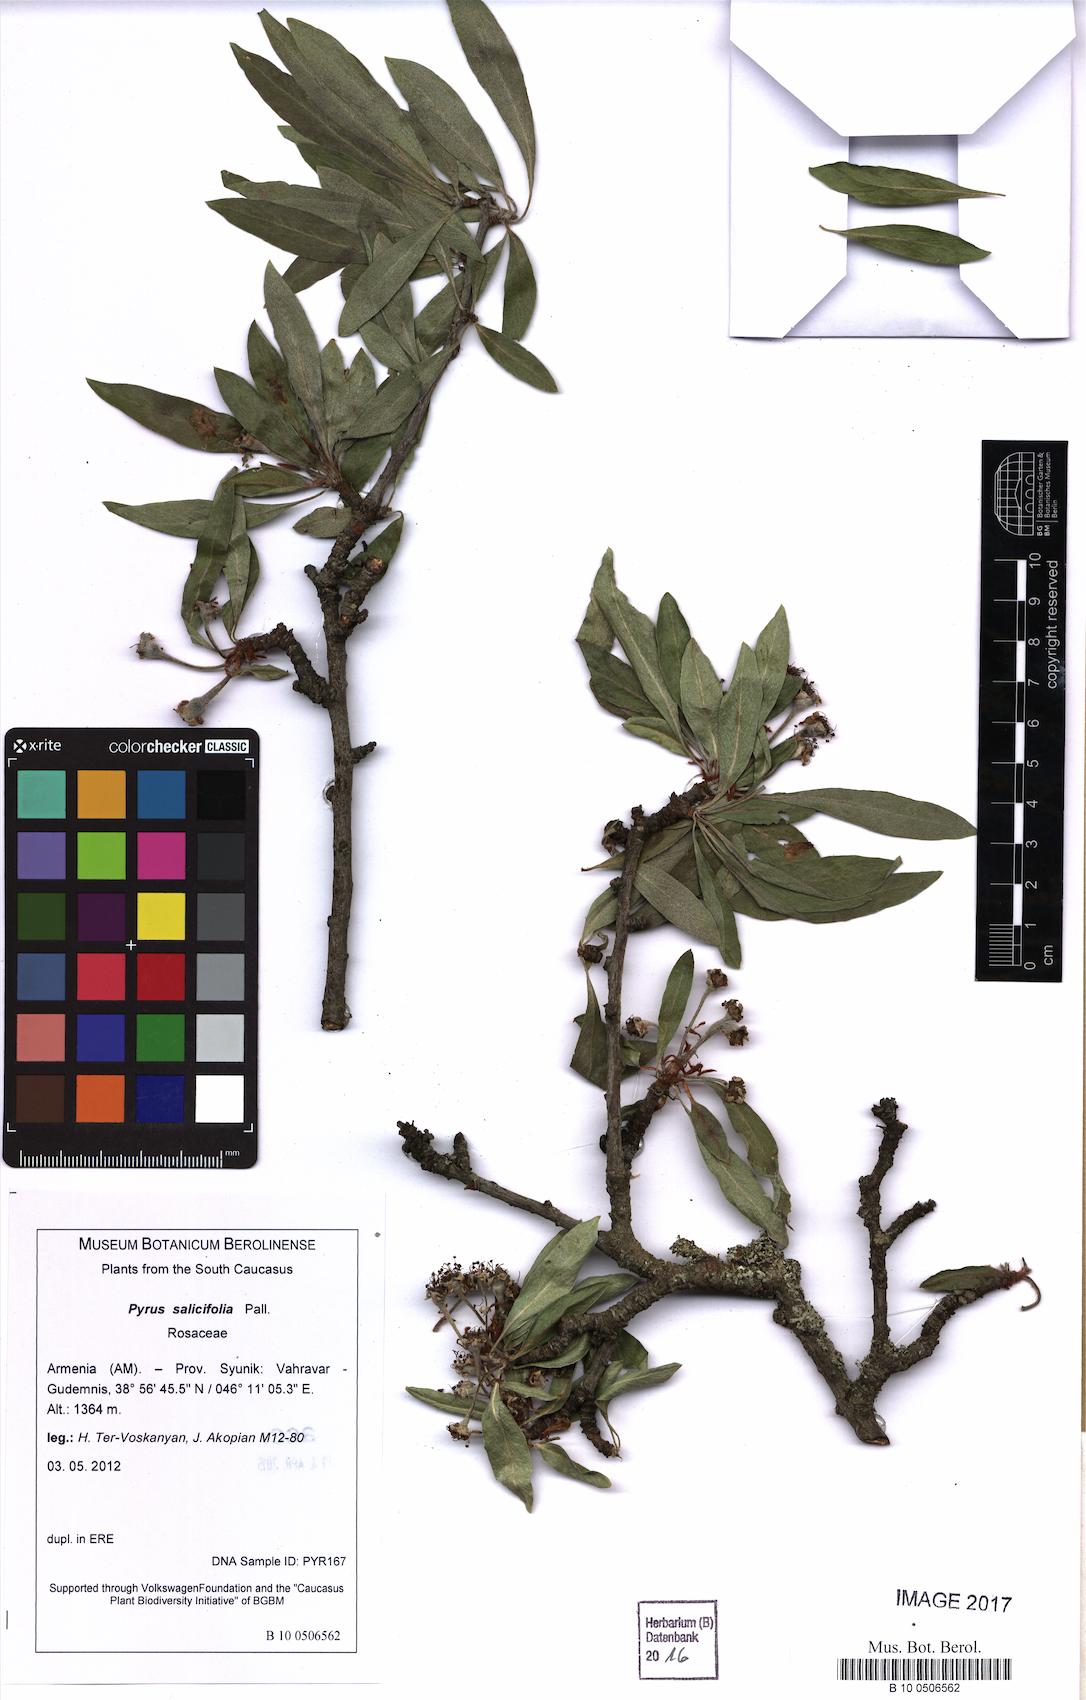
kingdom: Plantae
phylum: Tracheophyta
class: Magnoliopsida
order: Rosales
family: Rosaceae
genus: Pyrus
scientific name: Pyrus salicifolia
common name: Willow-leaved pear
